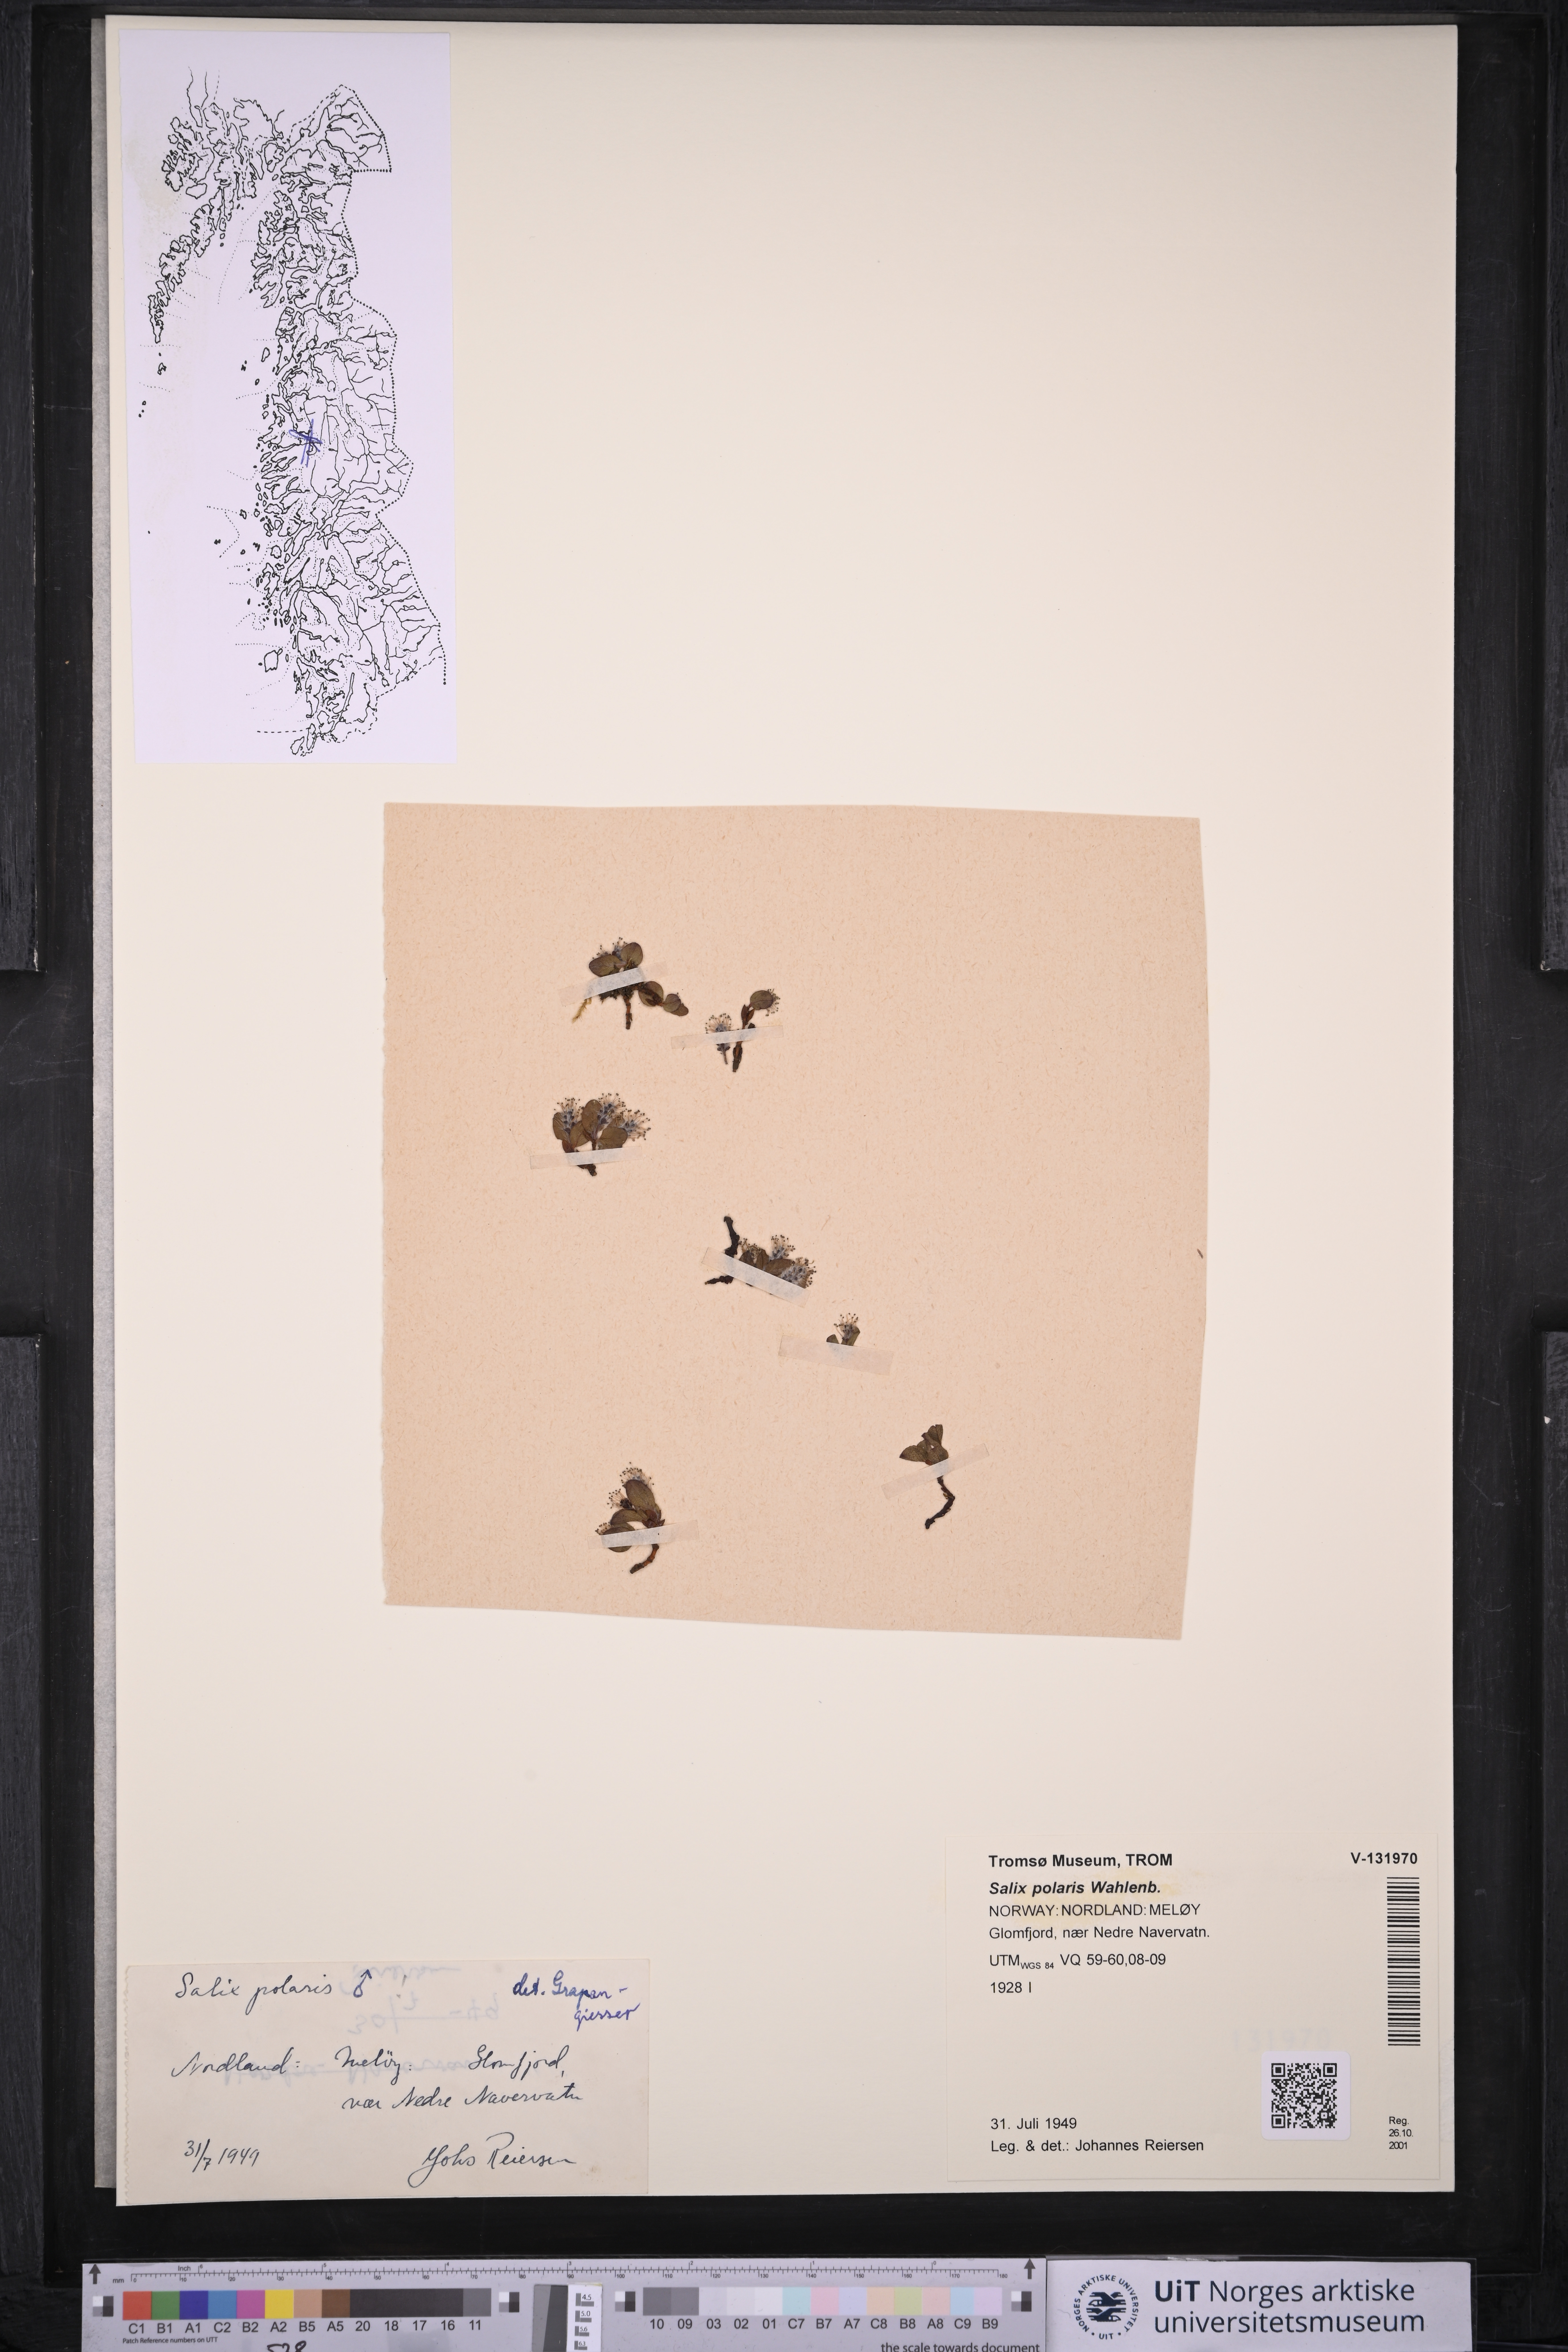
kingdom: Plantae
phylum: Tracheophyta
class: Magnoliopsida
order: Malpighiales
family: Salicaceae
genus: Salix
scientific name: Salix polaris
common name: Polar willow
